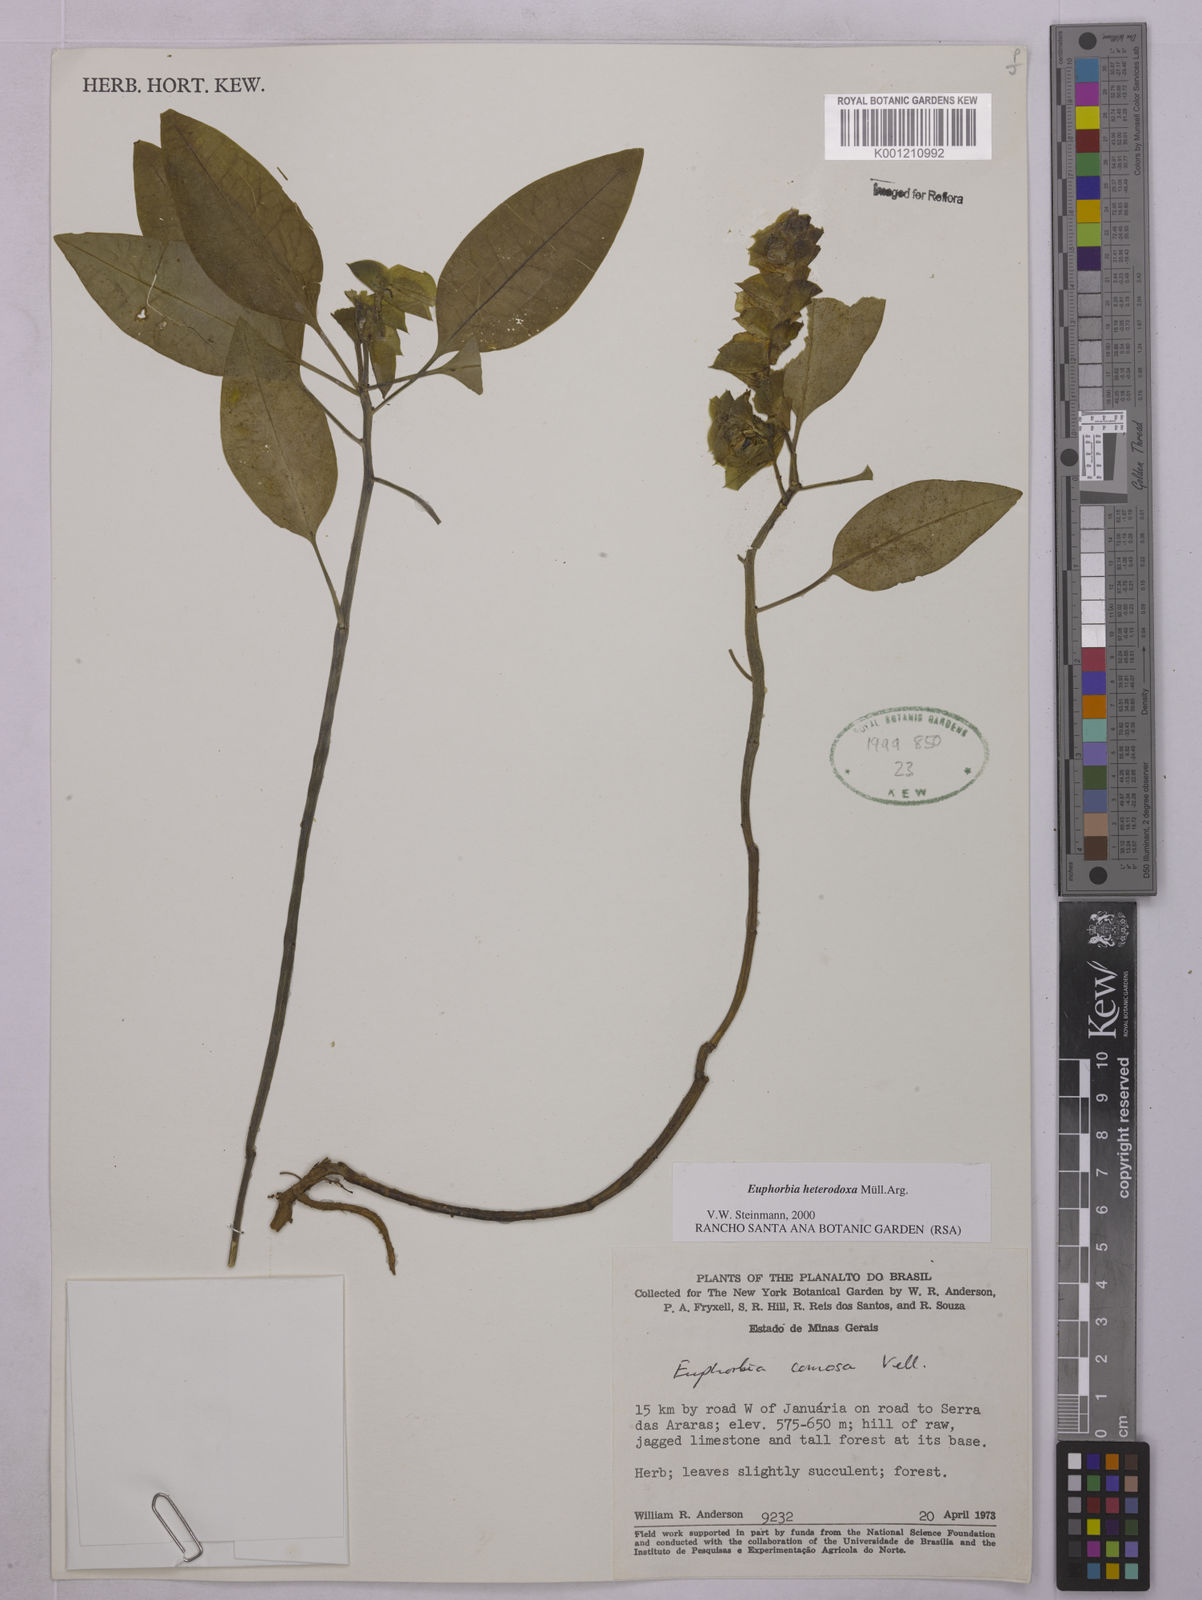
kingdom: Plantae
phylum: Tracheophyta
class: Magnoliopsida
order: Malpighiales
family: Euphorbiaceae
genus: Euphorbia
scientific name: Euphorbia
